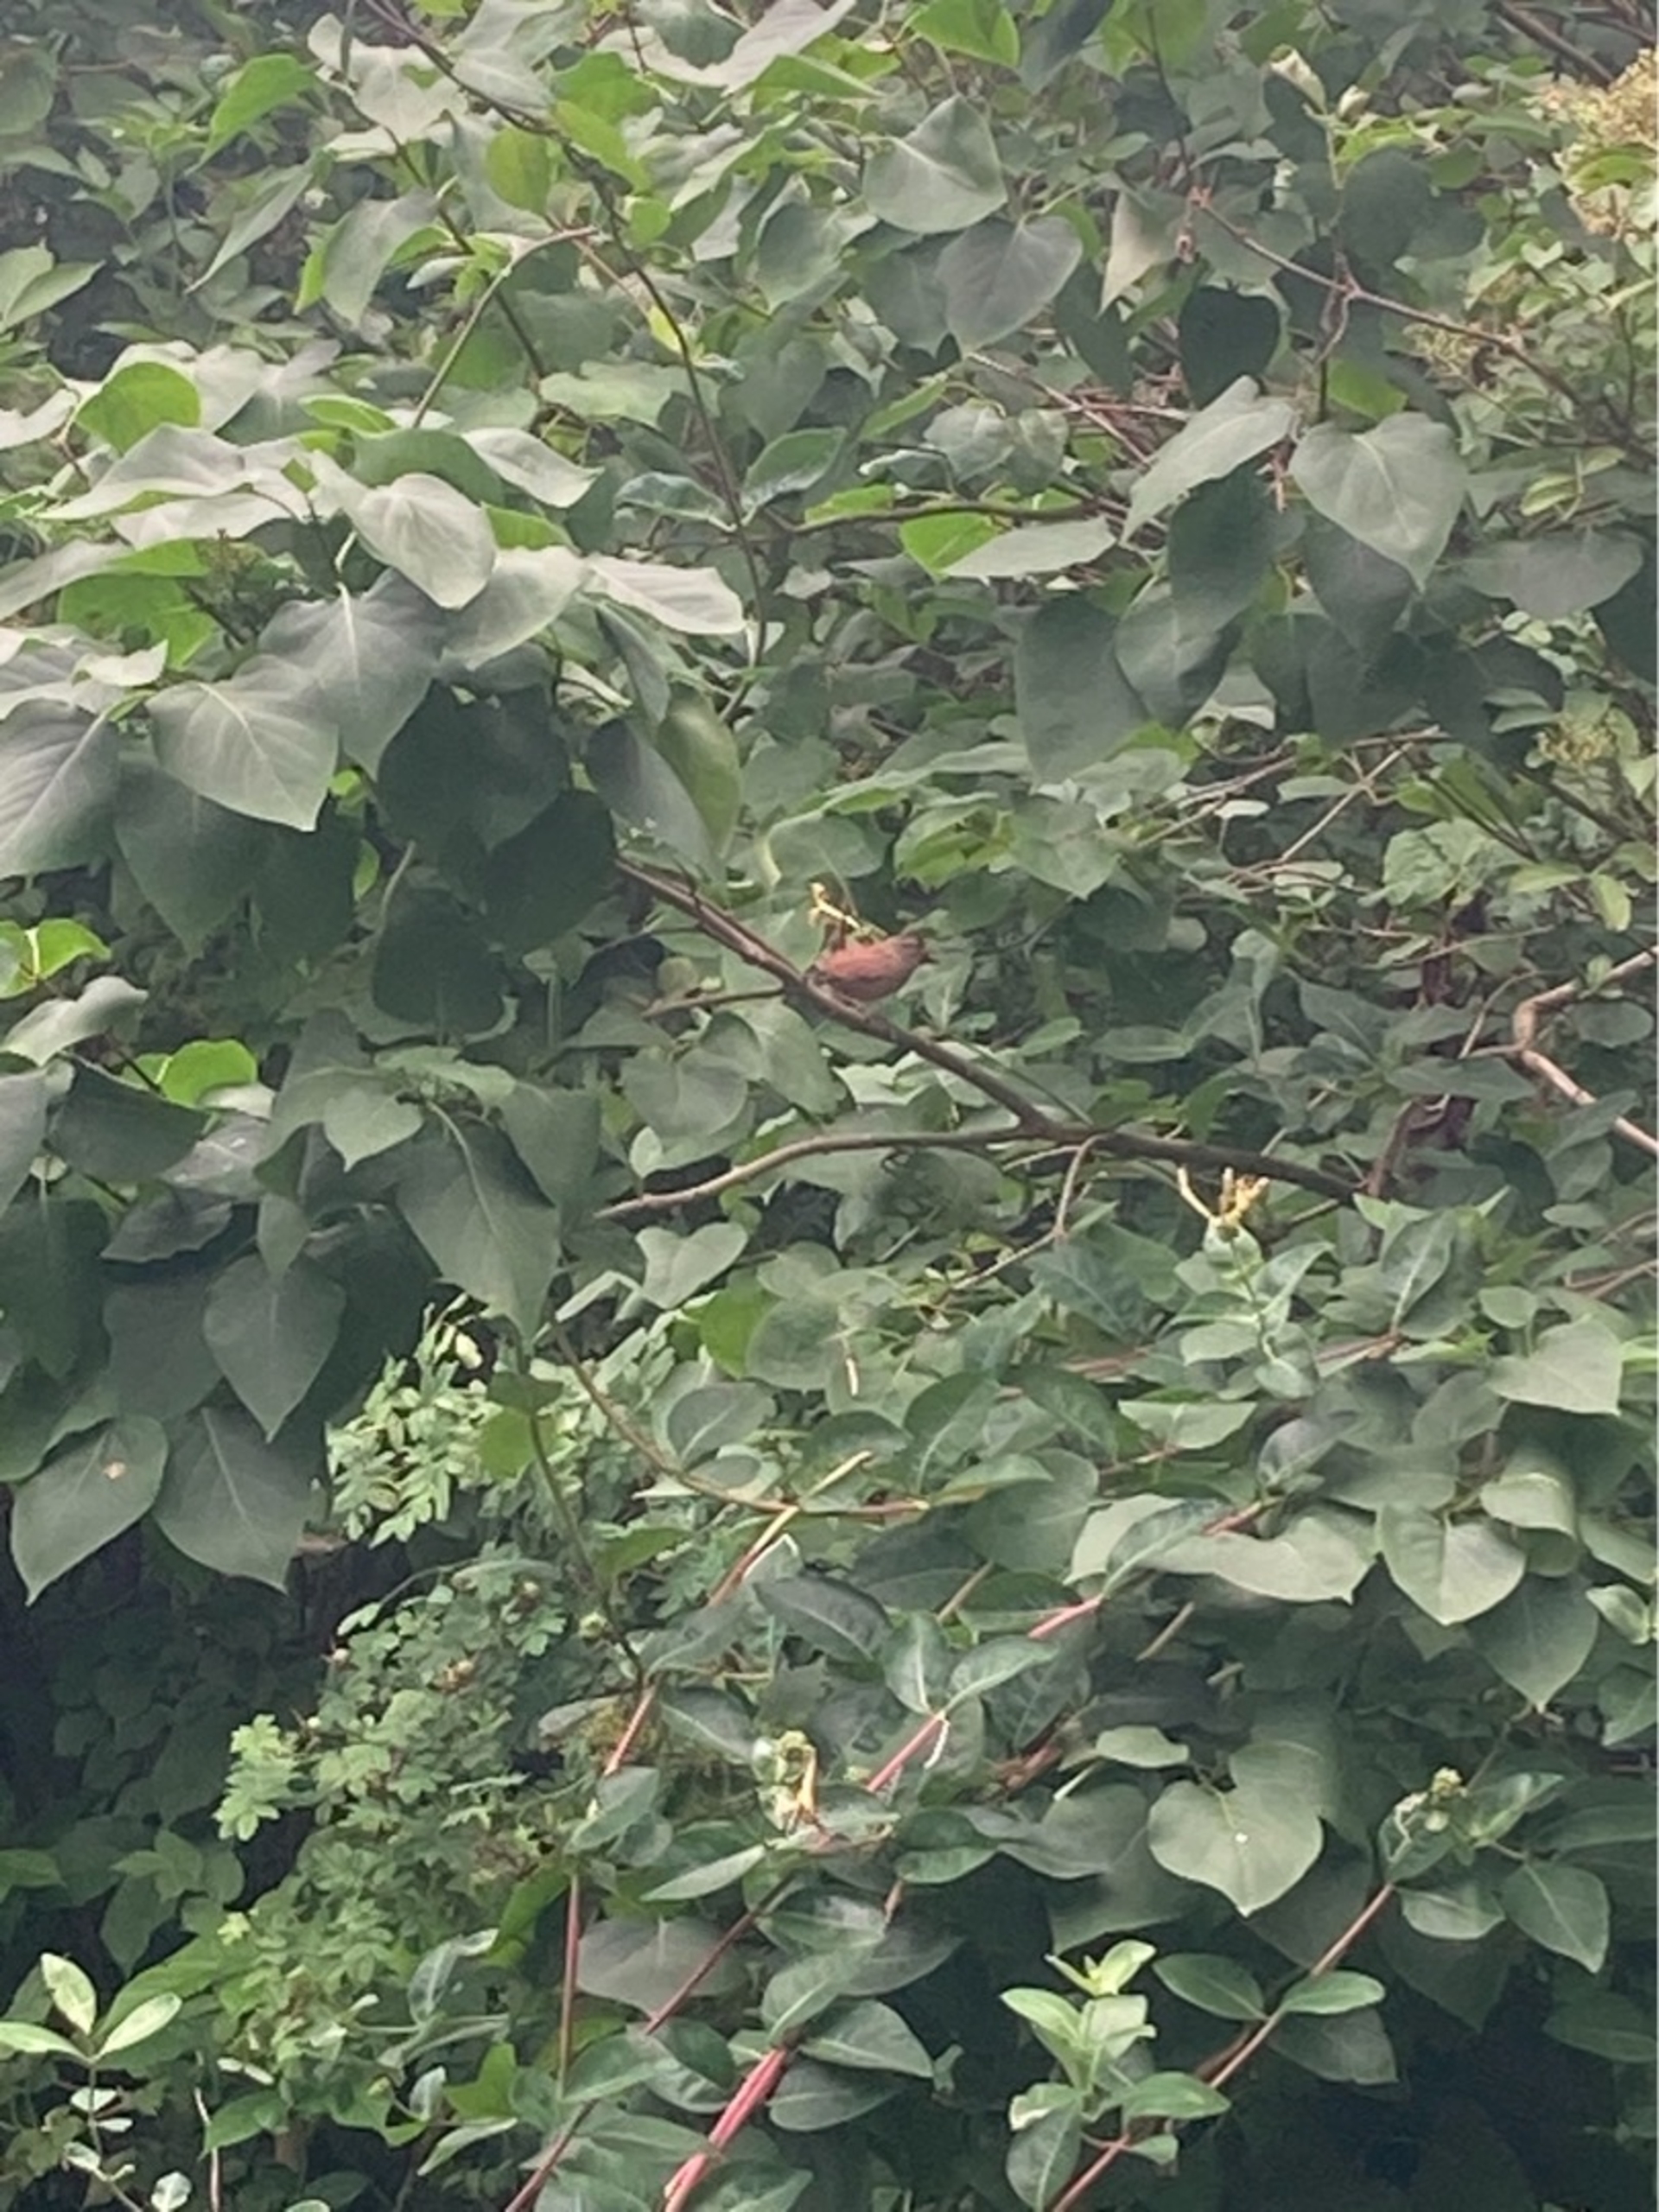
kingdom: Animalia
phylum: Chordata
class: Aves
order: Passeriformes
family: Troglodytidae
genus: Troglodytes
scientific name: Troglodytes troglodytes
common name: Gærdesmutte
